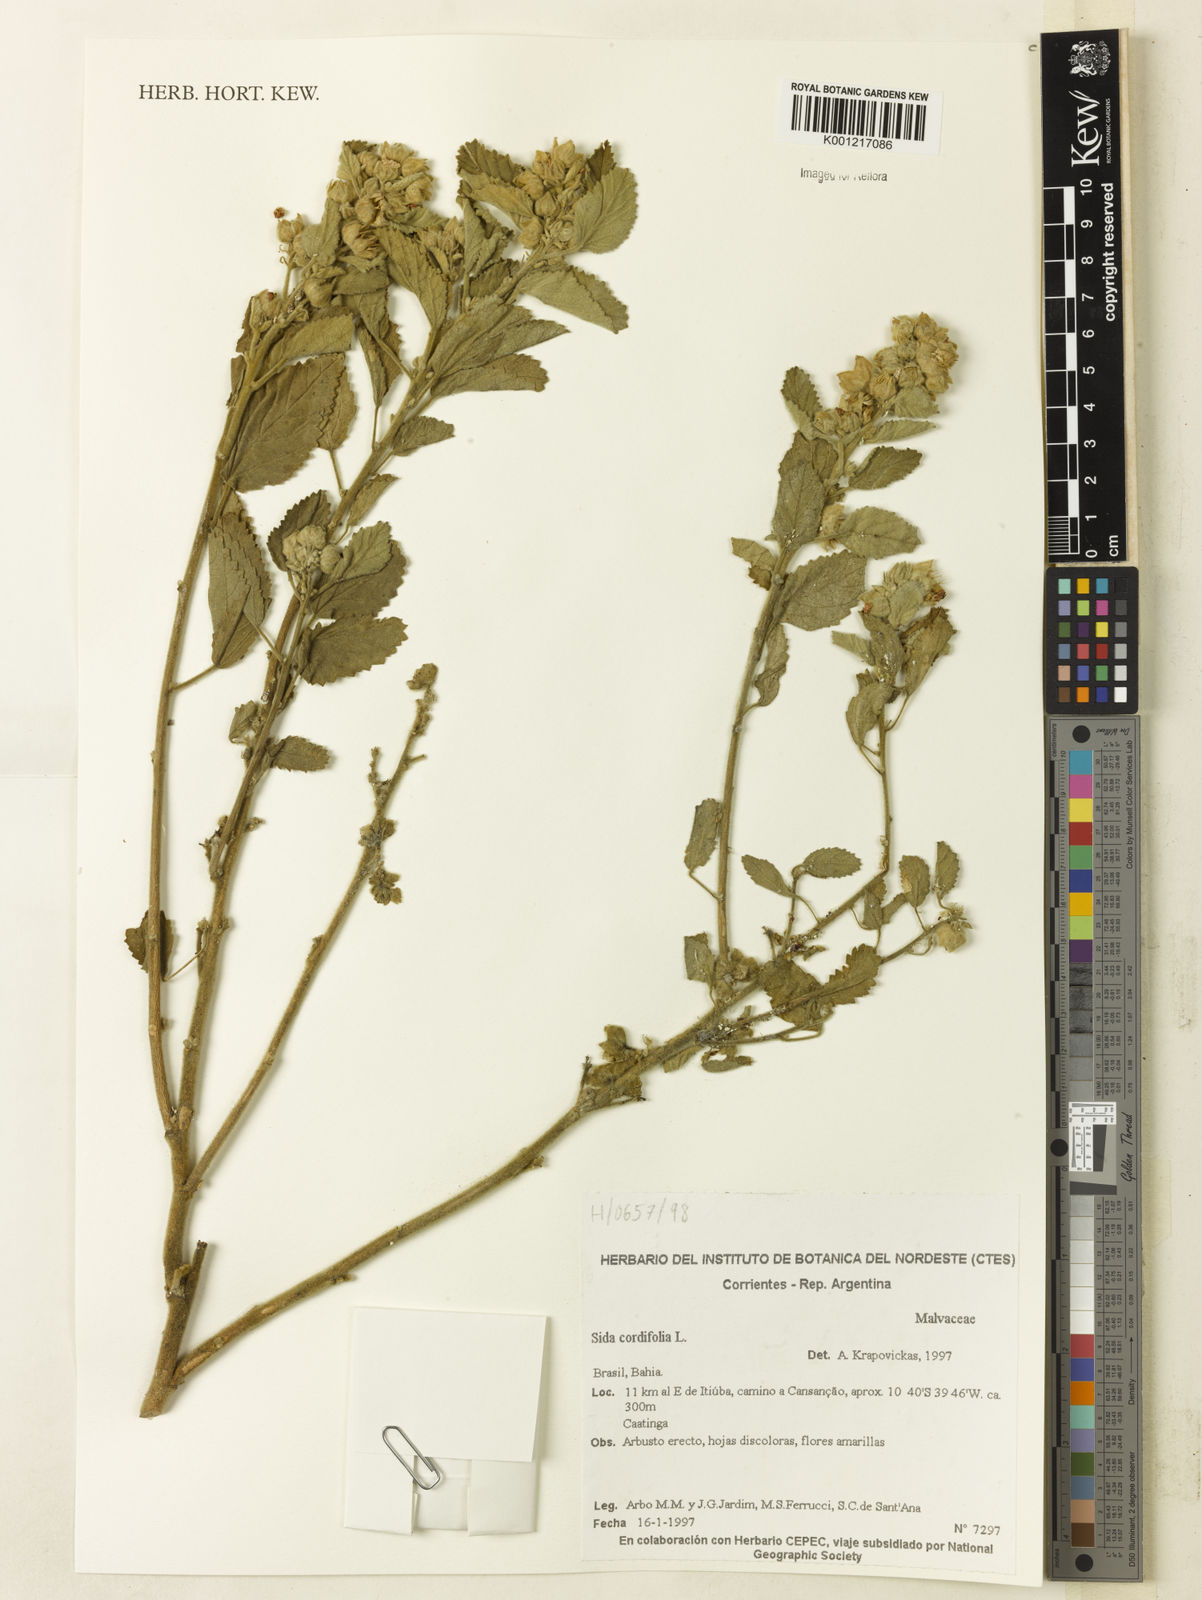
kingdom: Plantae
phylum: Tracheophyta
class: Magnoliopsida
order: Malvales
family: Malvaceae
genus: Sida
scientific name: Sida cordifolia
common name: Ilima
